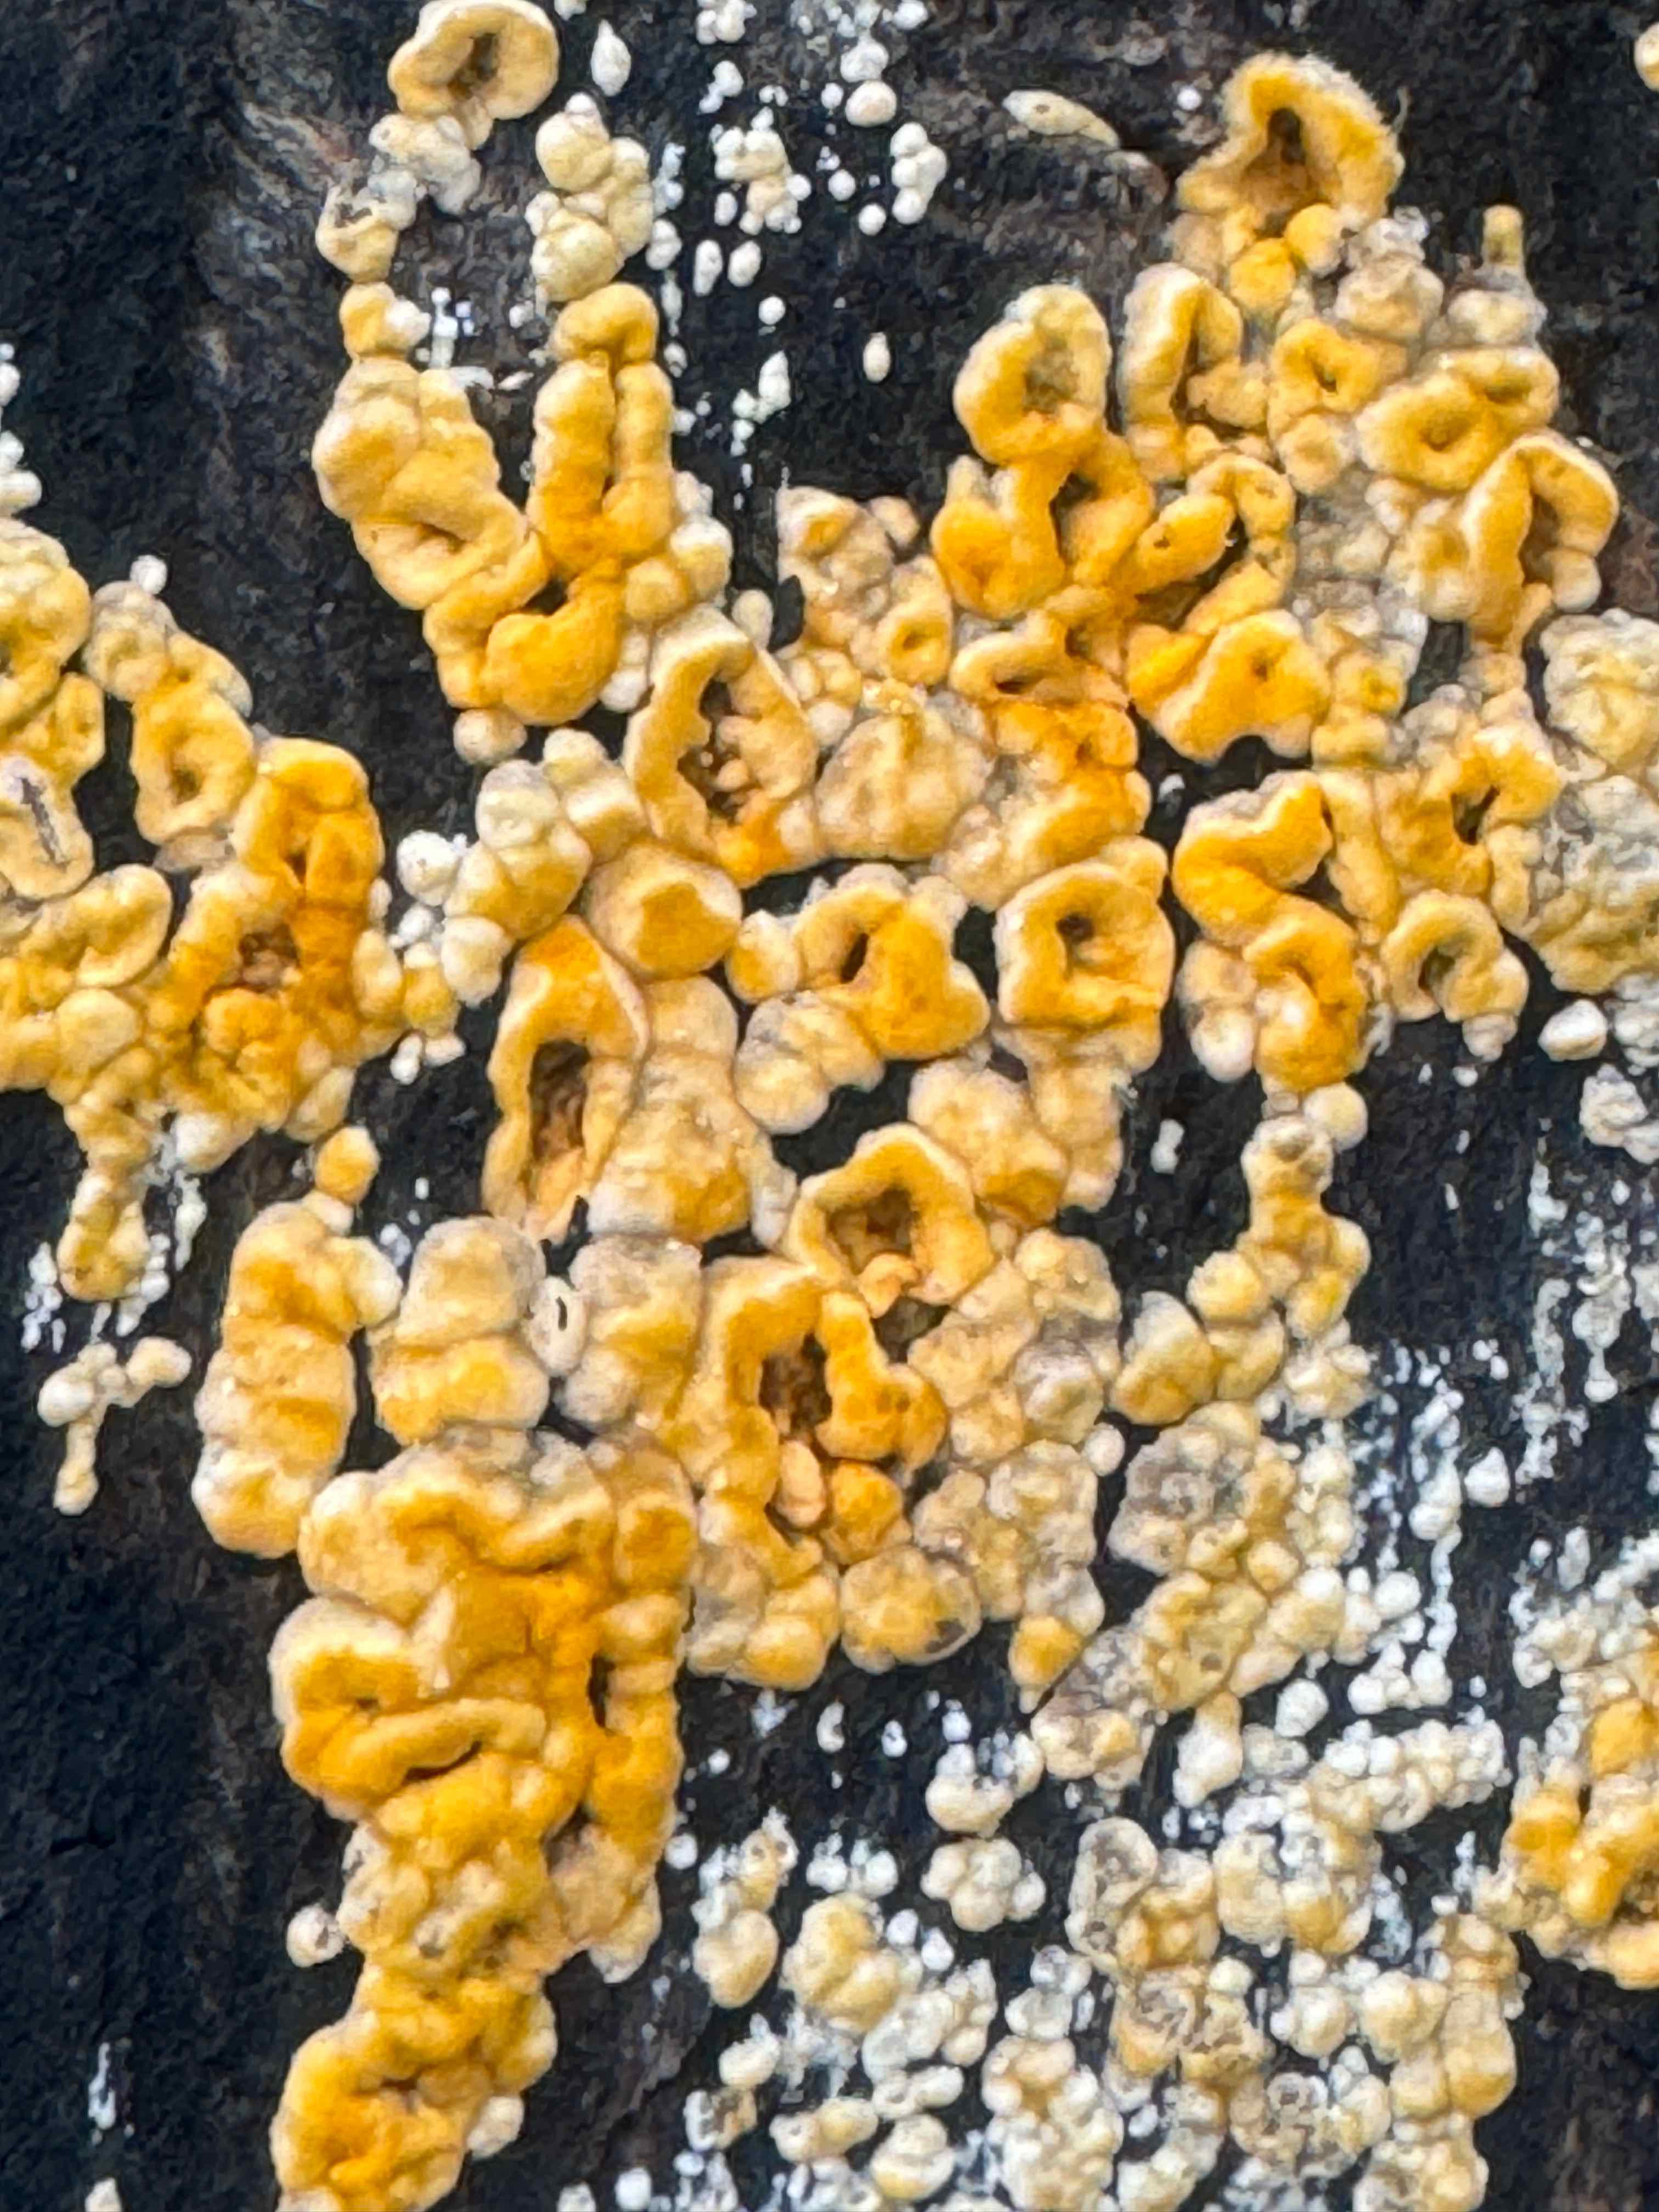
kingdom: Fungi
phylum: Basidiomycota
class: Agaricomycetes
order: Russulales
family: Stereaceae
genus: Stereum
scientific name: Stereum hirsutum
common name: håret lædersvamp
